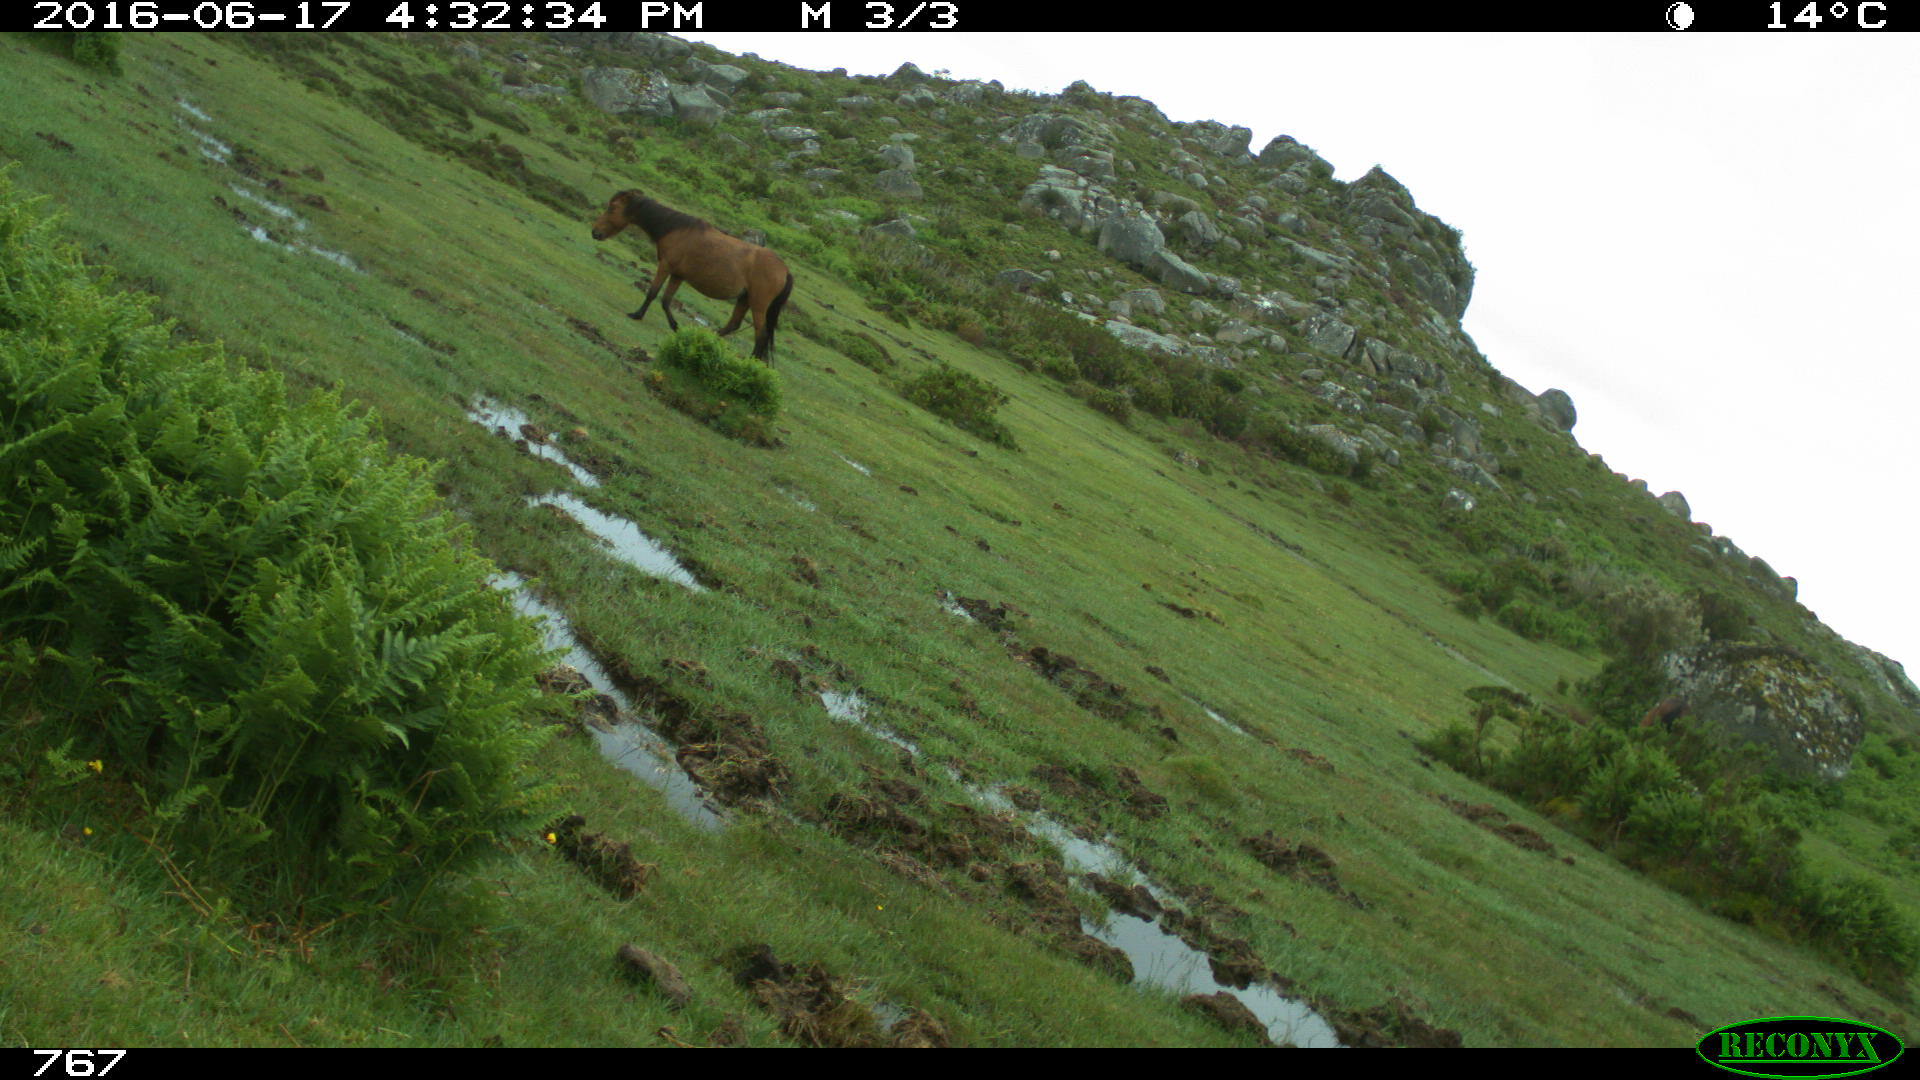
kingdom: Animalia
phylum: Chordata
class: Mammalia
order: Perissodactyla
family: Equidae
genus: Equus
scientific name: Equus caballus
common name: Horse
